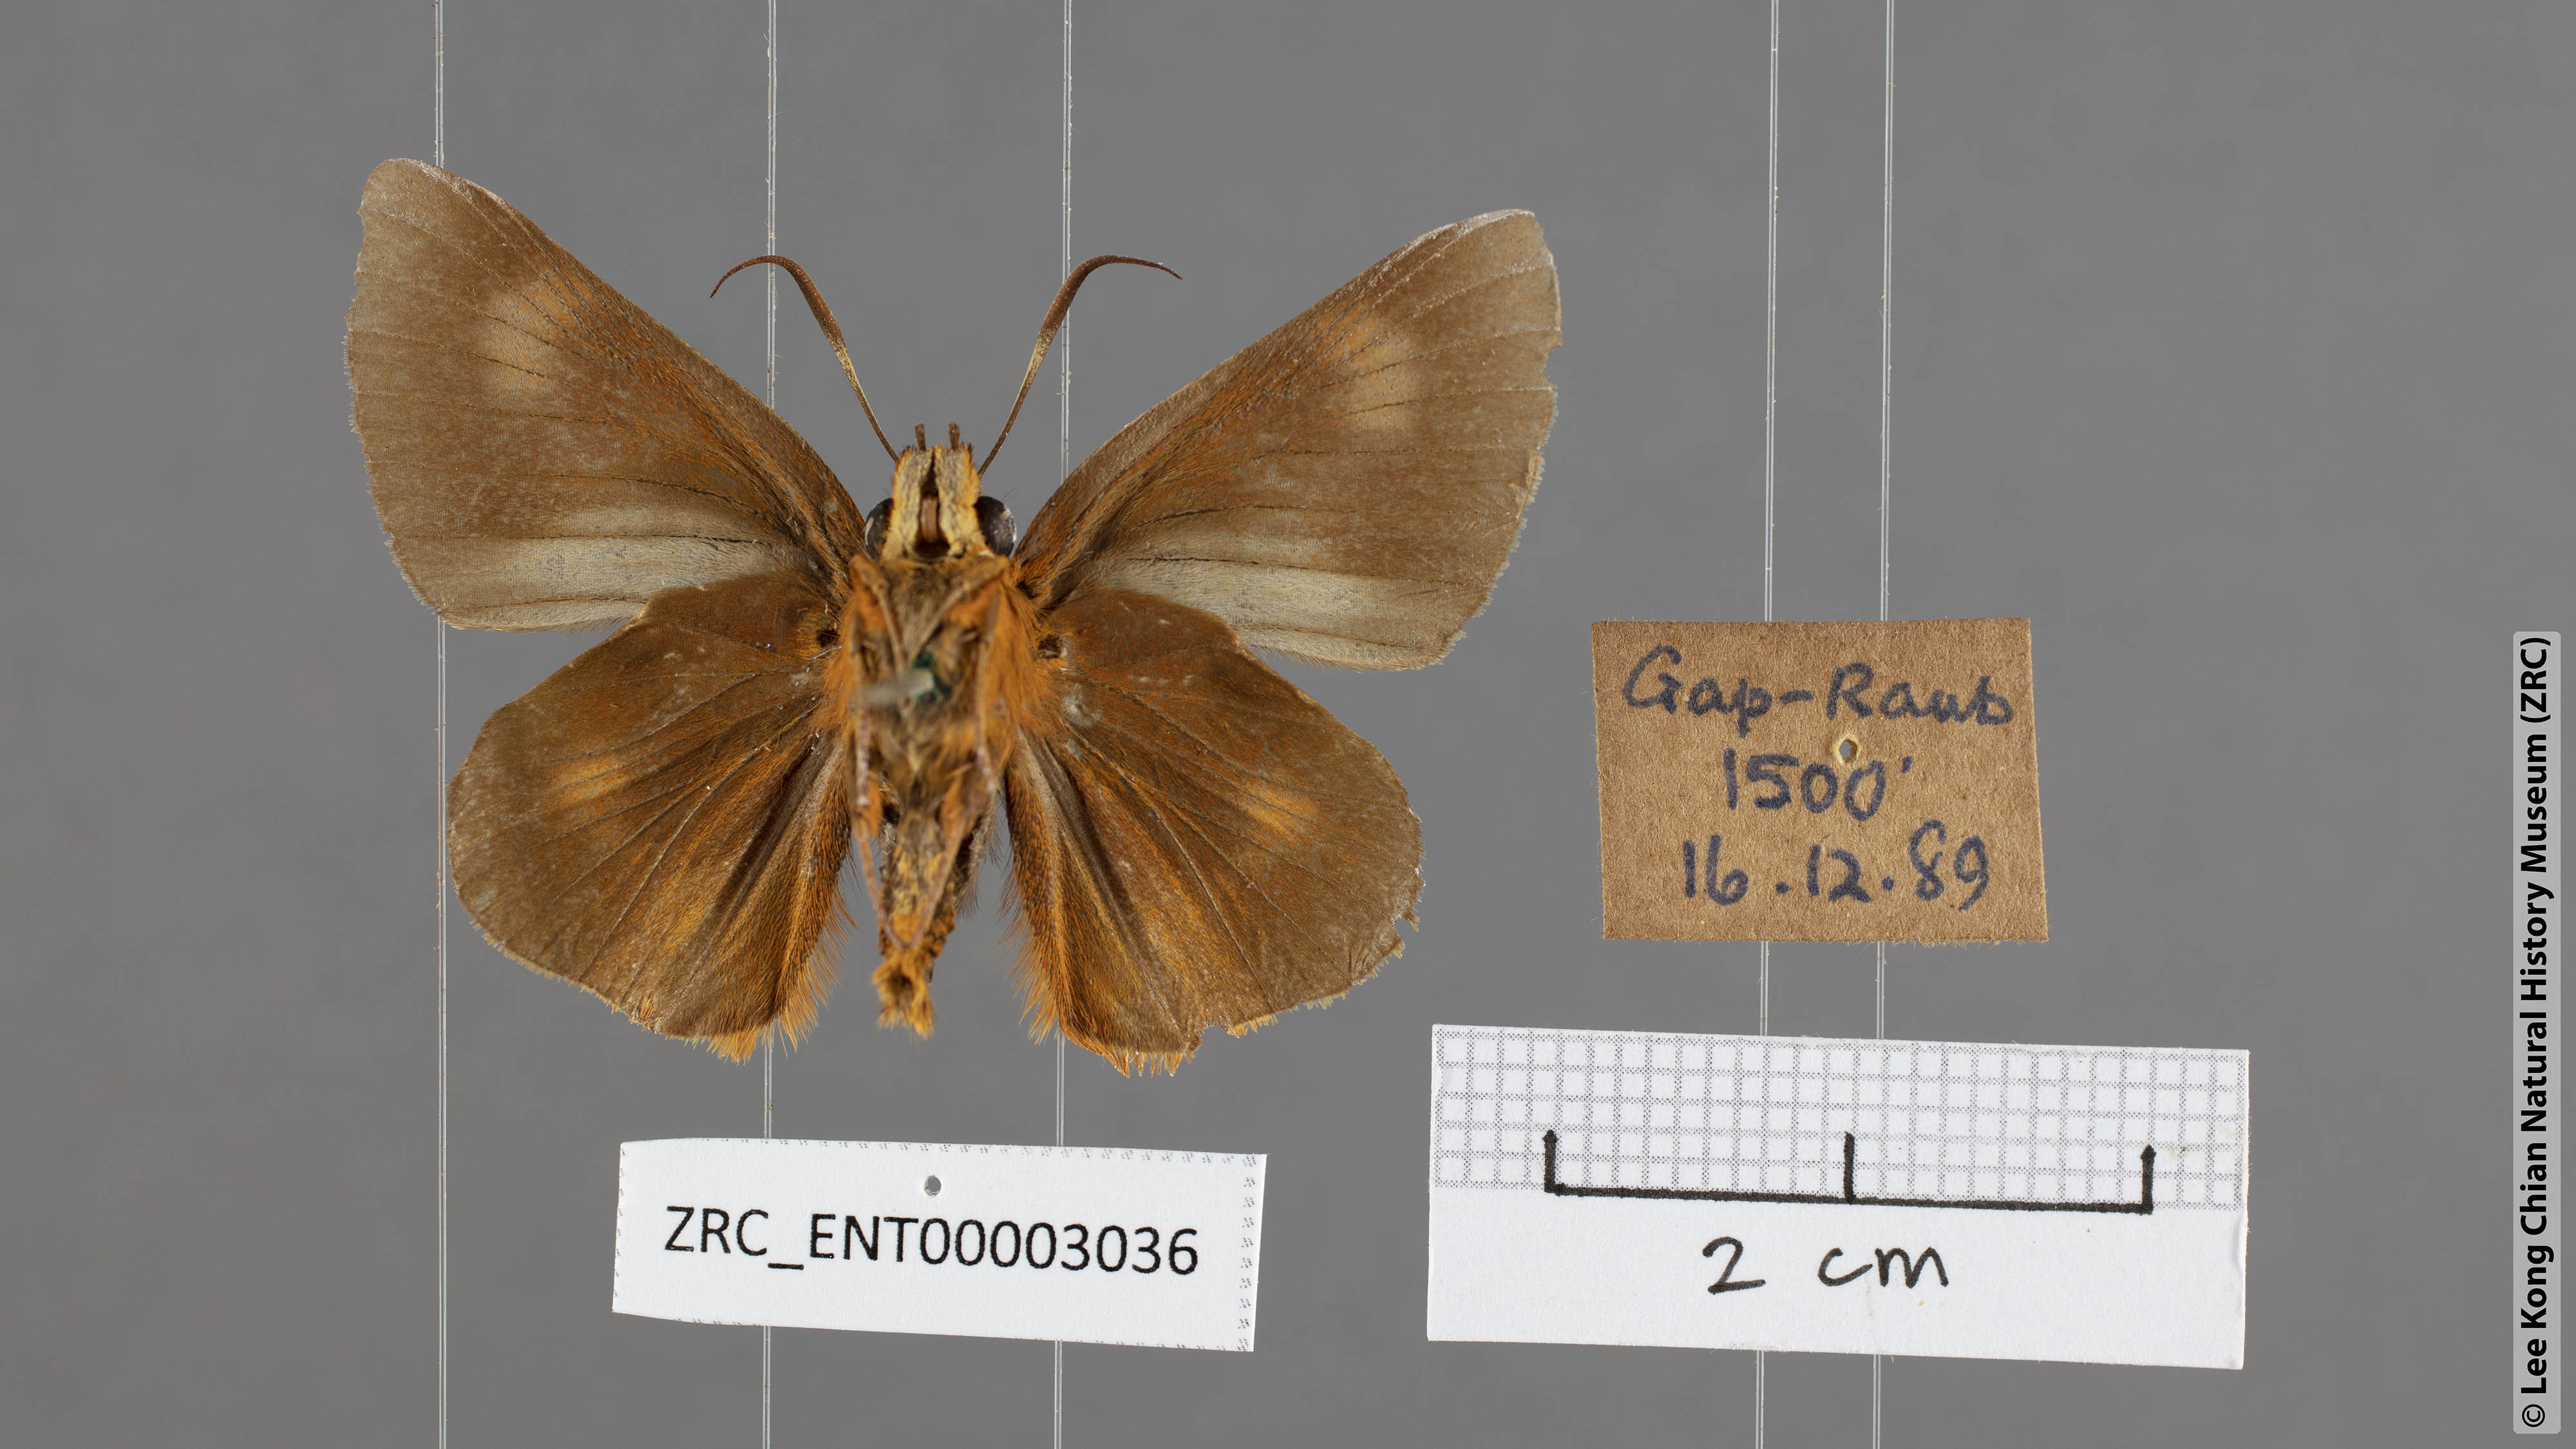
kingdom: Animalia
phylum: Arthropoda
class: Insecta
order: Lepidoptera
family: Hesperiidae
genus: Bibasis
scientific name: Bibasis Burara oedipodea
